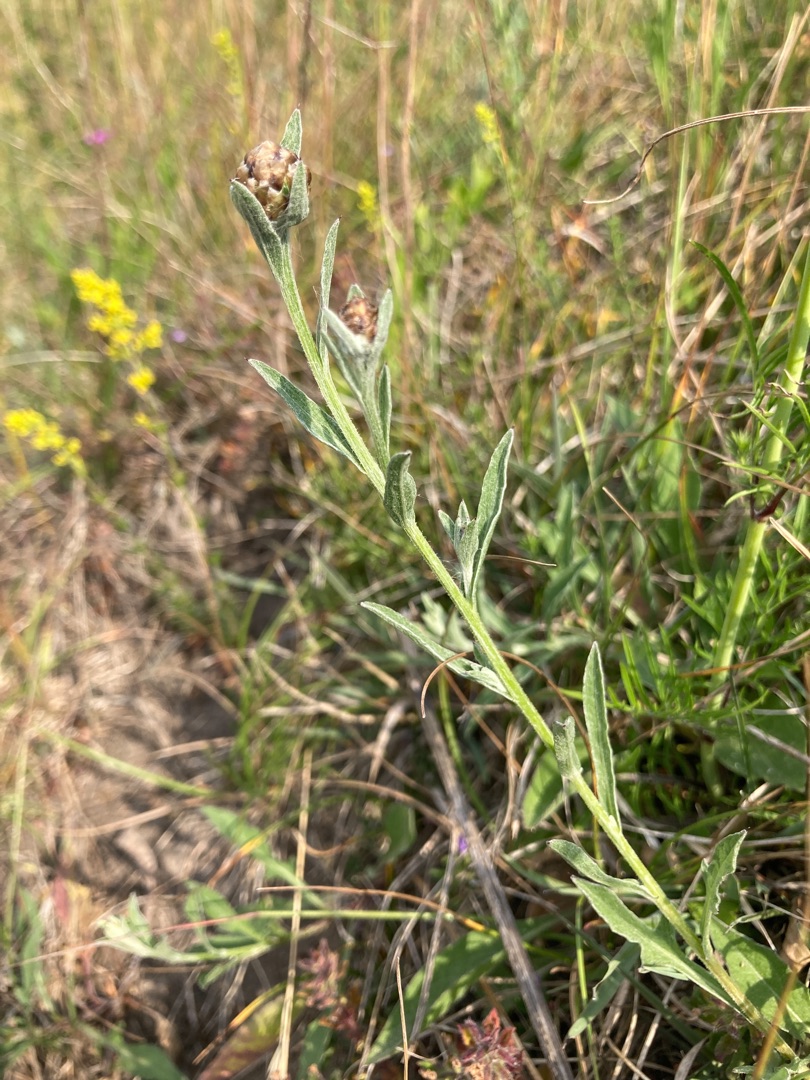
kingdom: Plantae
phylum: Tracheophyta
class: Magnoliopsida
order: Asterales
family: Asteraceae
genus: Centaurea
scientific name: Centaurea jacea
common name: Almindelig knopurt
